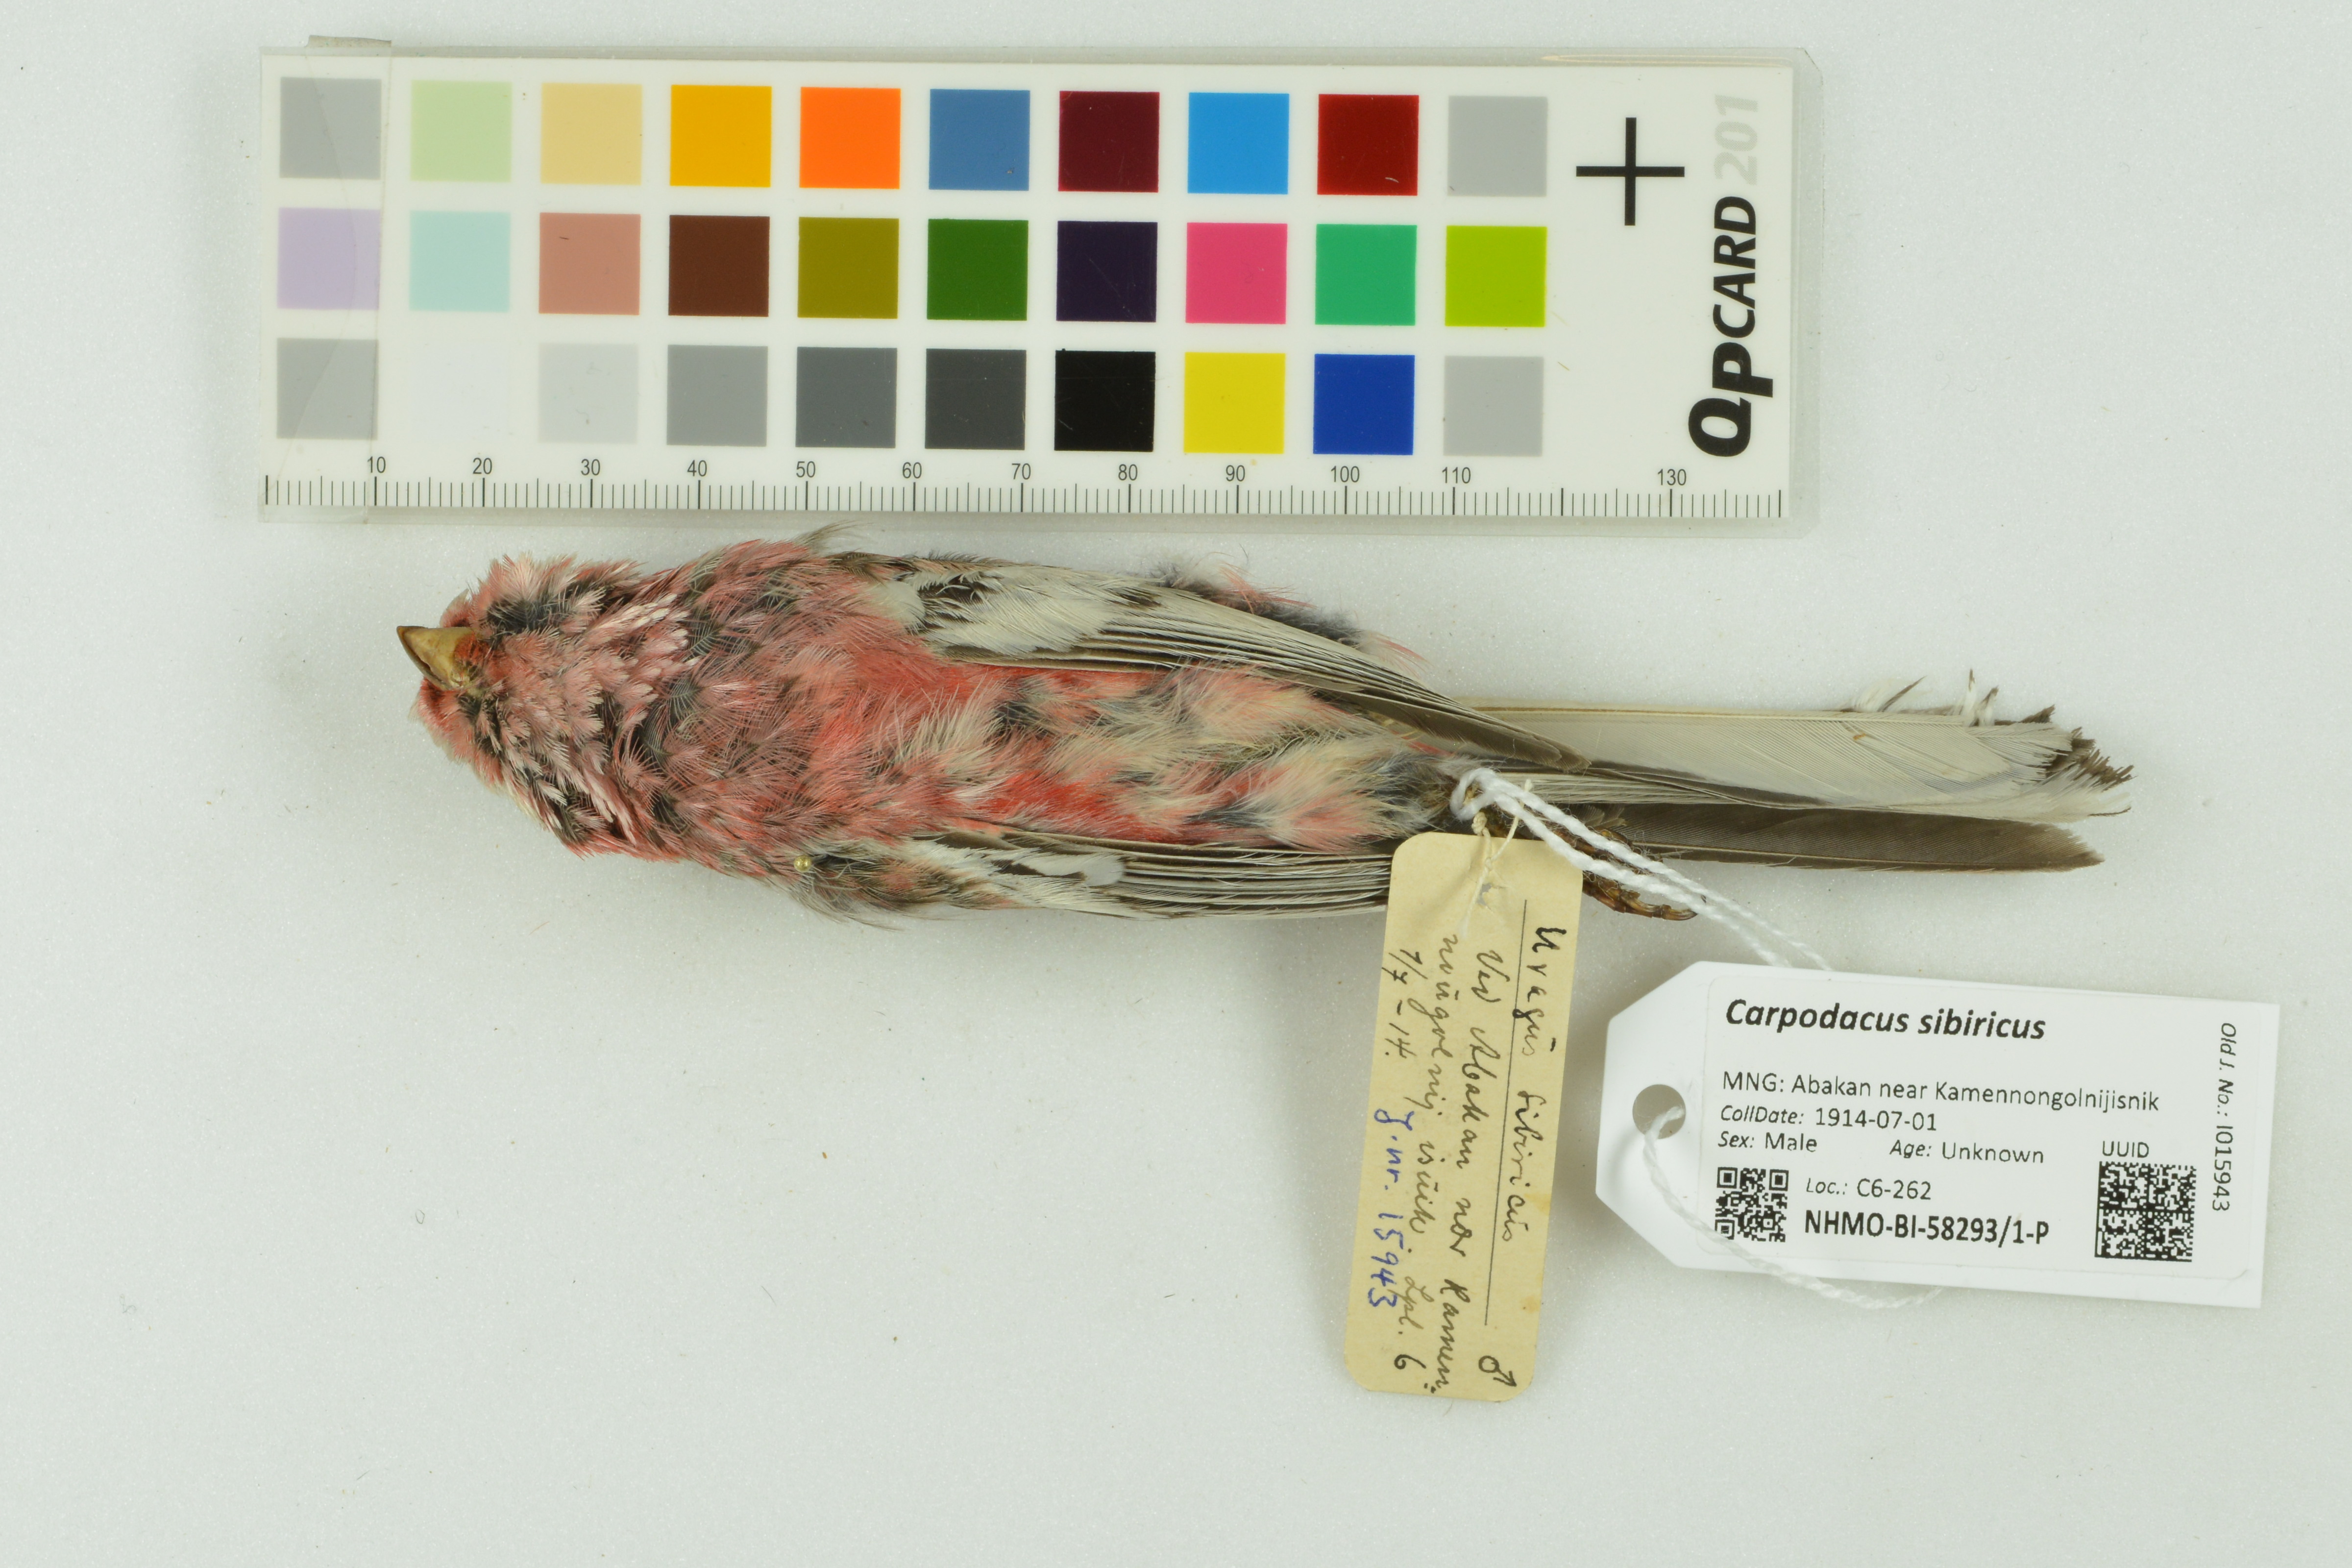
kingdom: Animalia
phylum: Chordata
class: Aves
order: Passeriformes
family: Fringillidae
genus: Carpodacus
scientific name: Carpodacus sibiricus
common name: Long-tailed rosefinch
